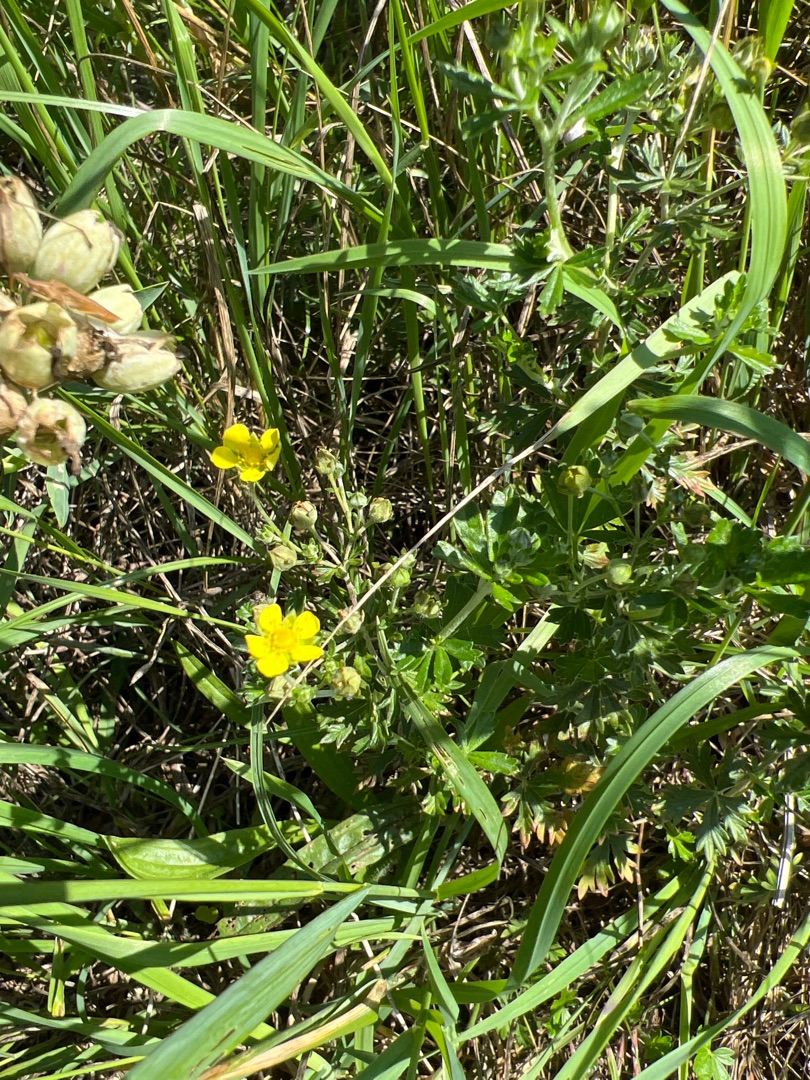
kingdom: Plantae
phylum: Tracheophyta
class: Magnoliopsida
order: Rosales
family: Rosaceae
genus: Potentilla
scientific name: Potentilla argentea
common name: Sølv-potentil
